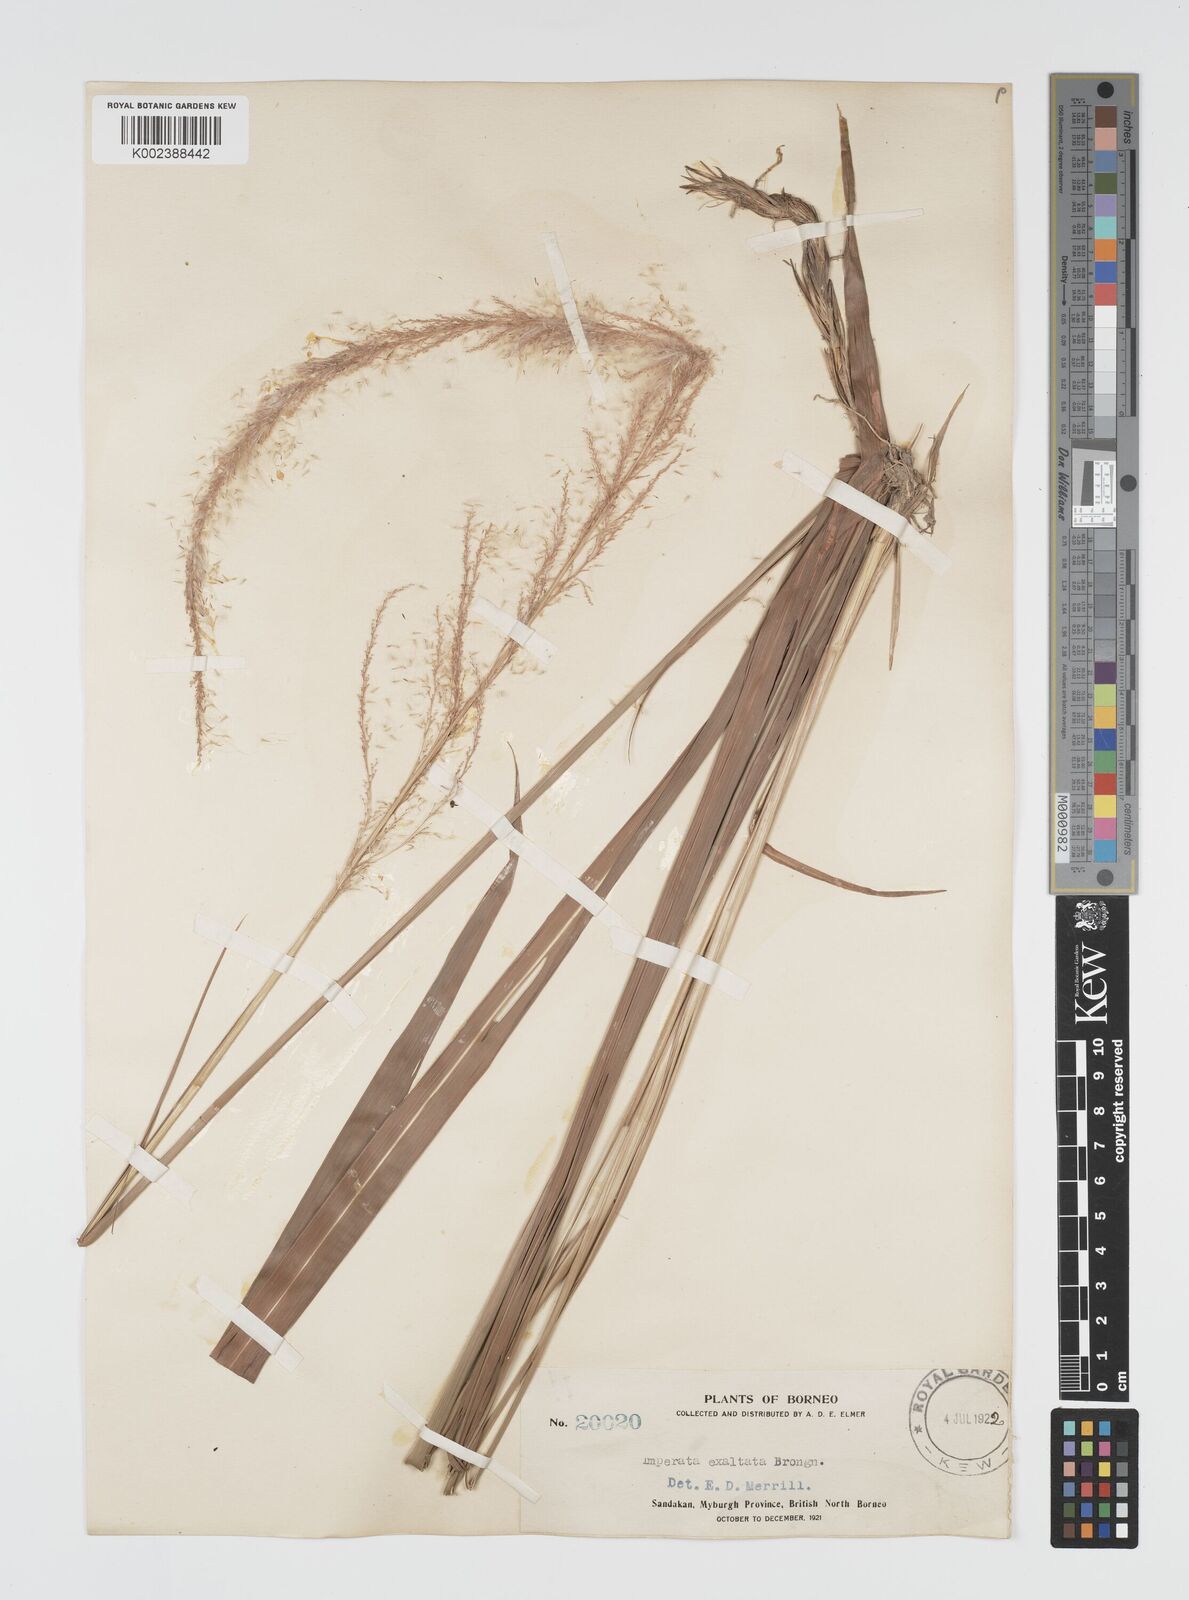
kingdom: Plantae
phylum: Tracheophyta
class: Liliopsida
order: Poales
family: Poaceae
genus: Imperata
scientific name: Imperata conferta
